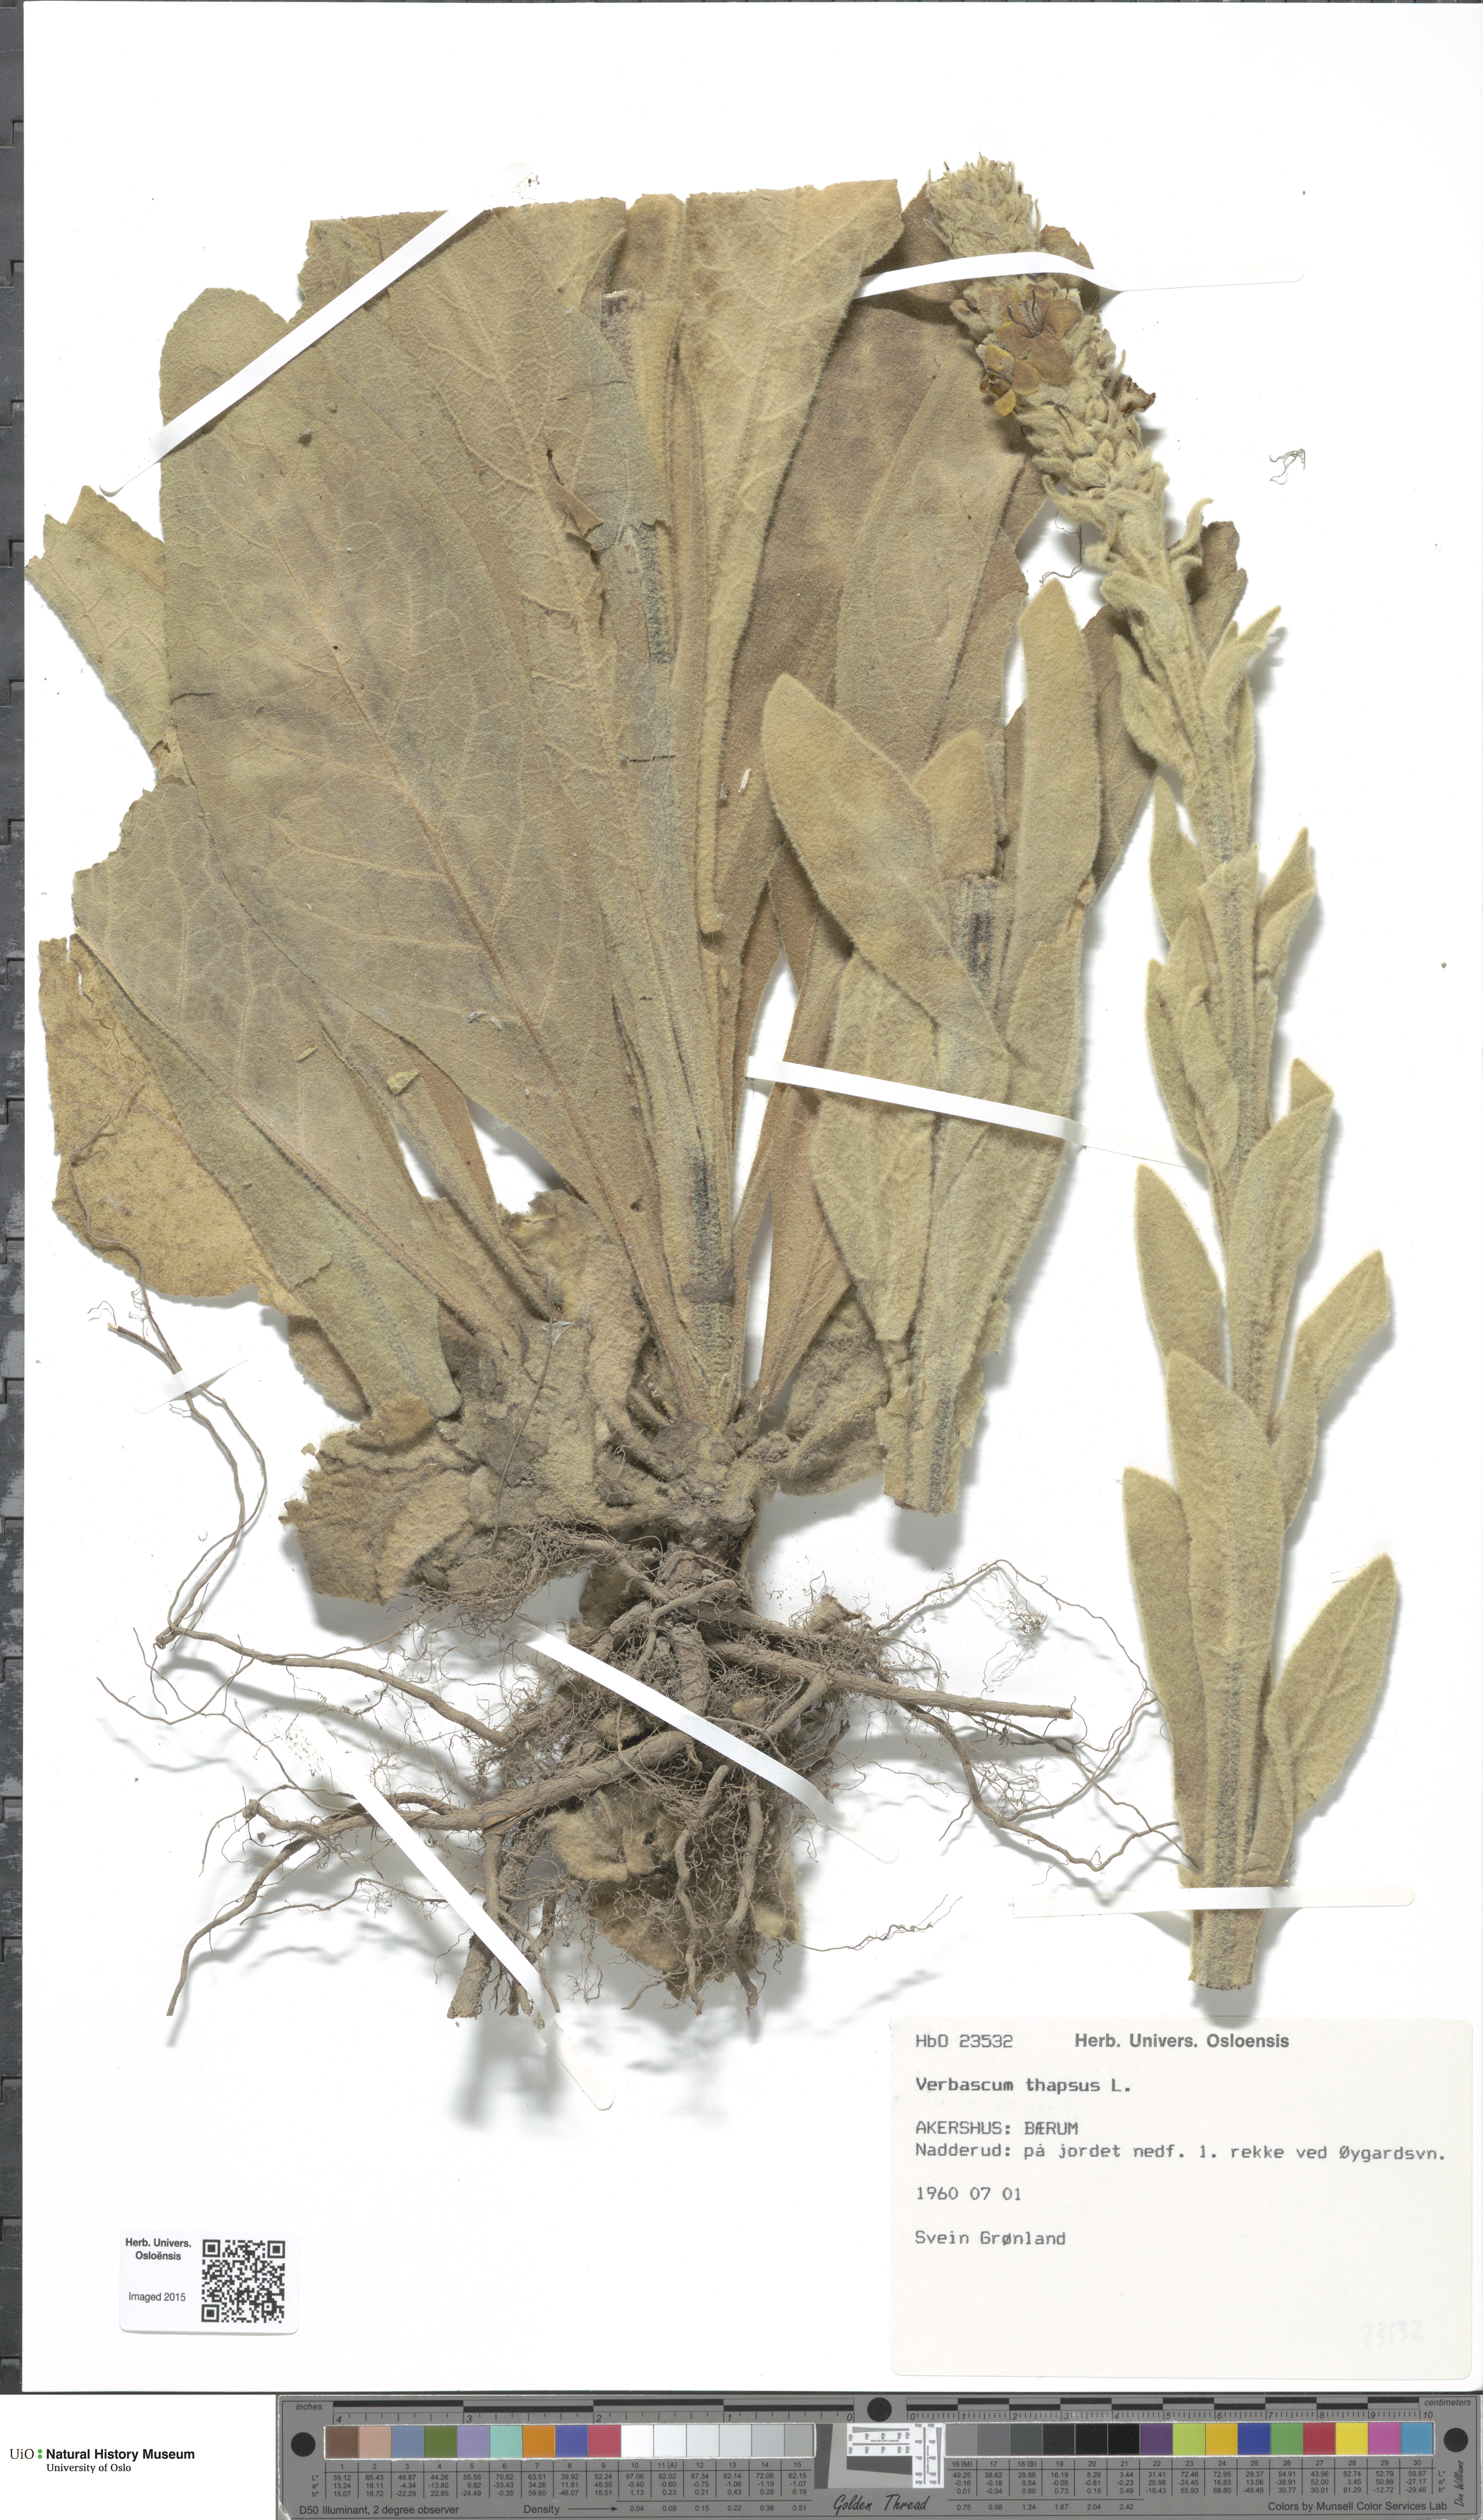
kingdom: Plantae
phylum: Tracheophyta
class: Magnoliopsida
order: Lamiales
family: Scrophulariaceae
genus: Verbascum
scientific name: Verbascum thapsus
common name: Common mullein
